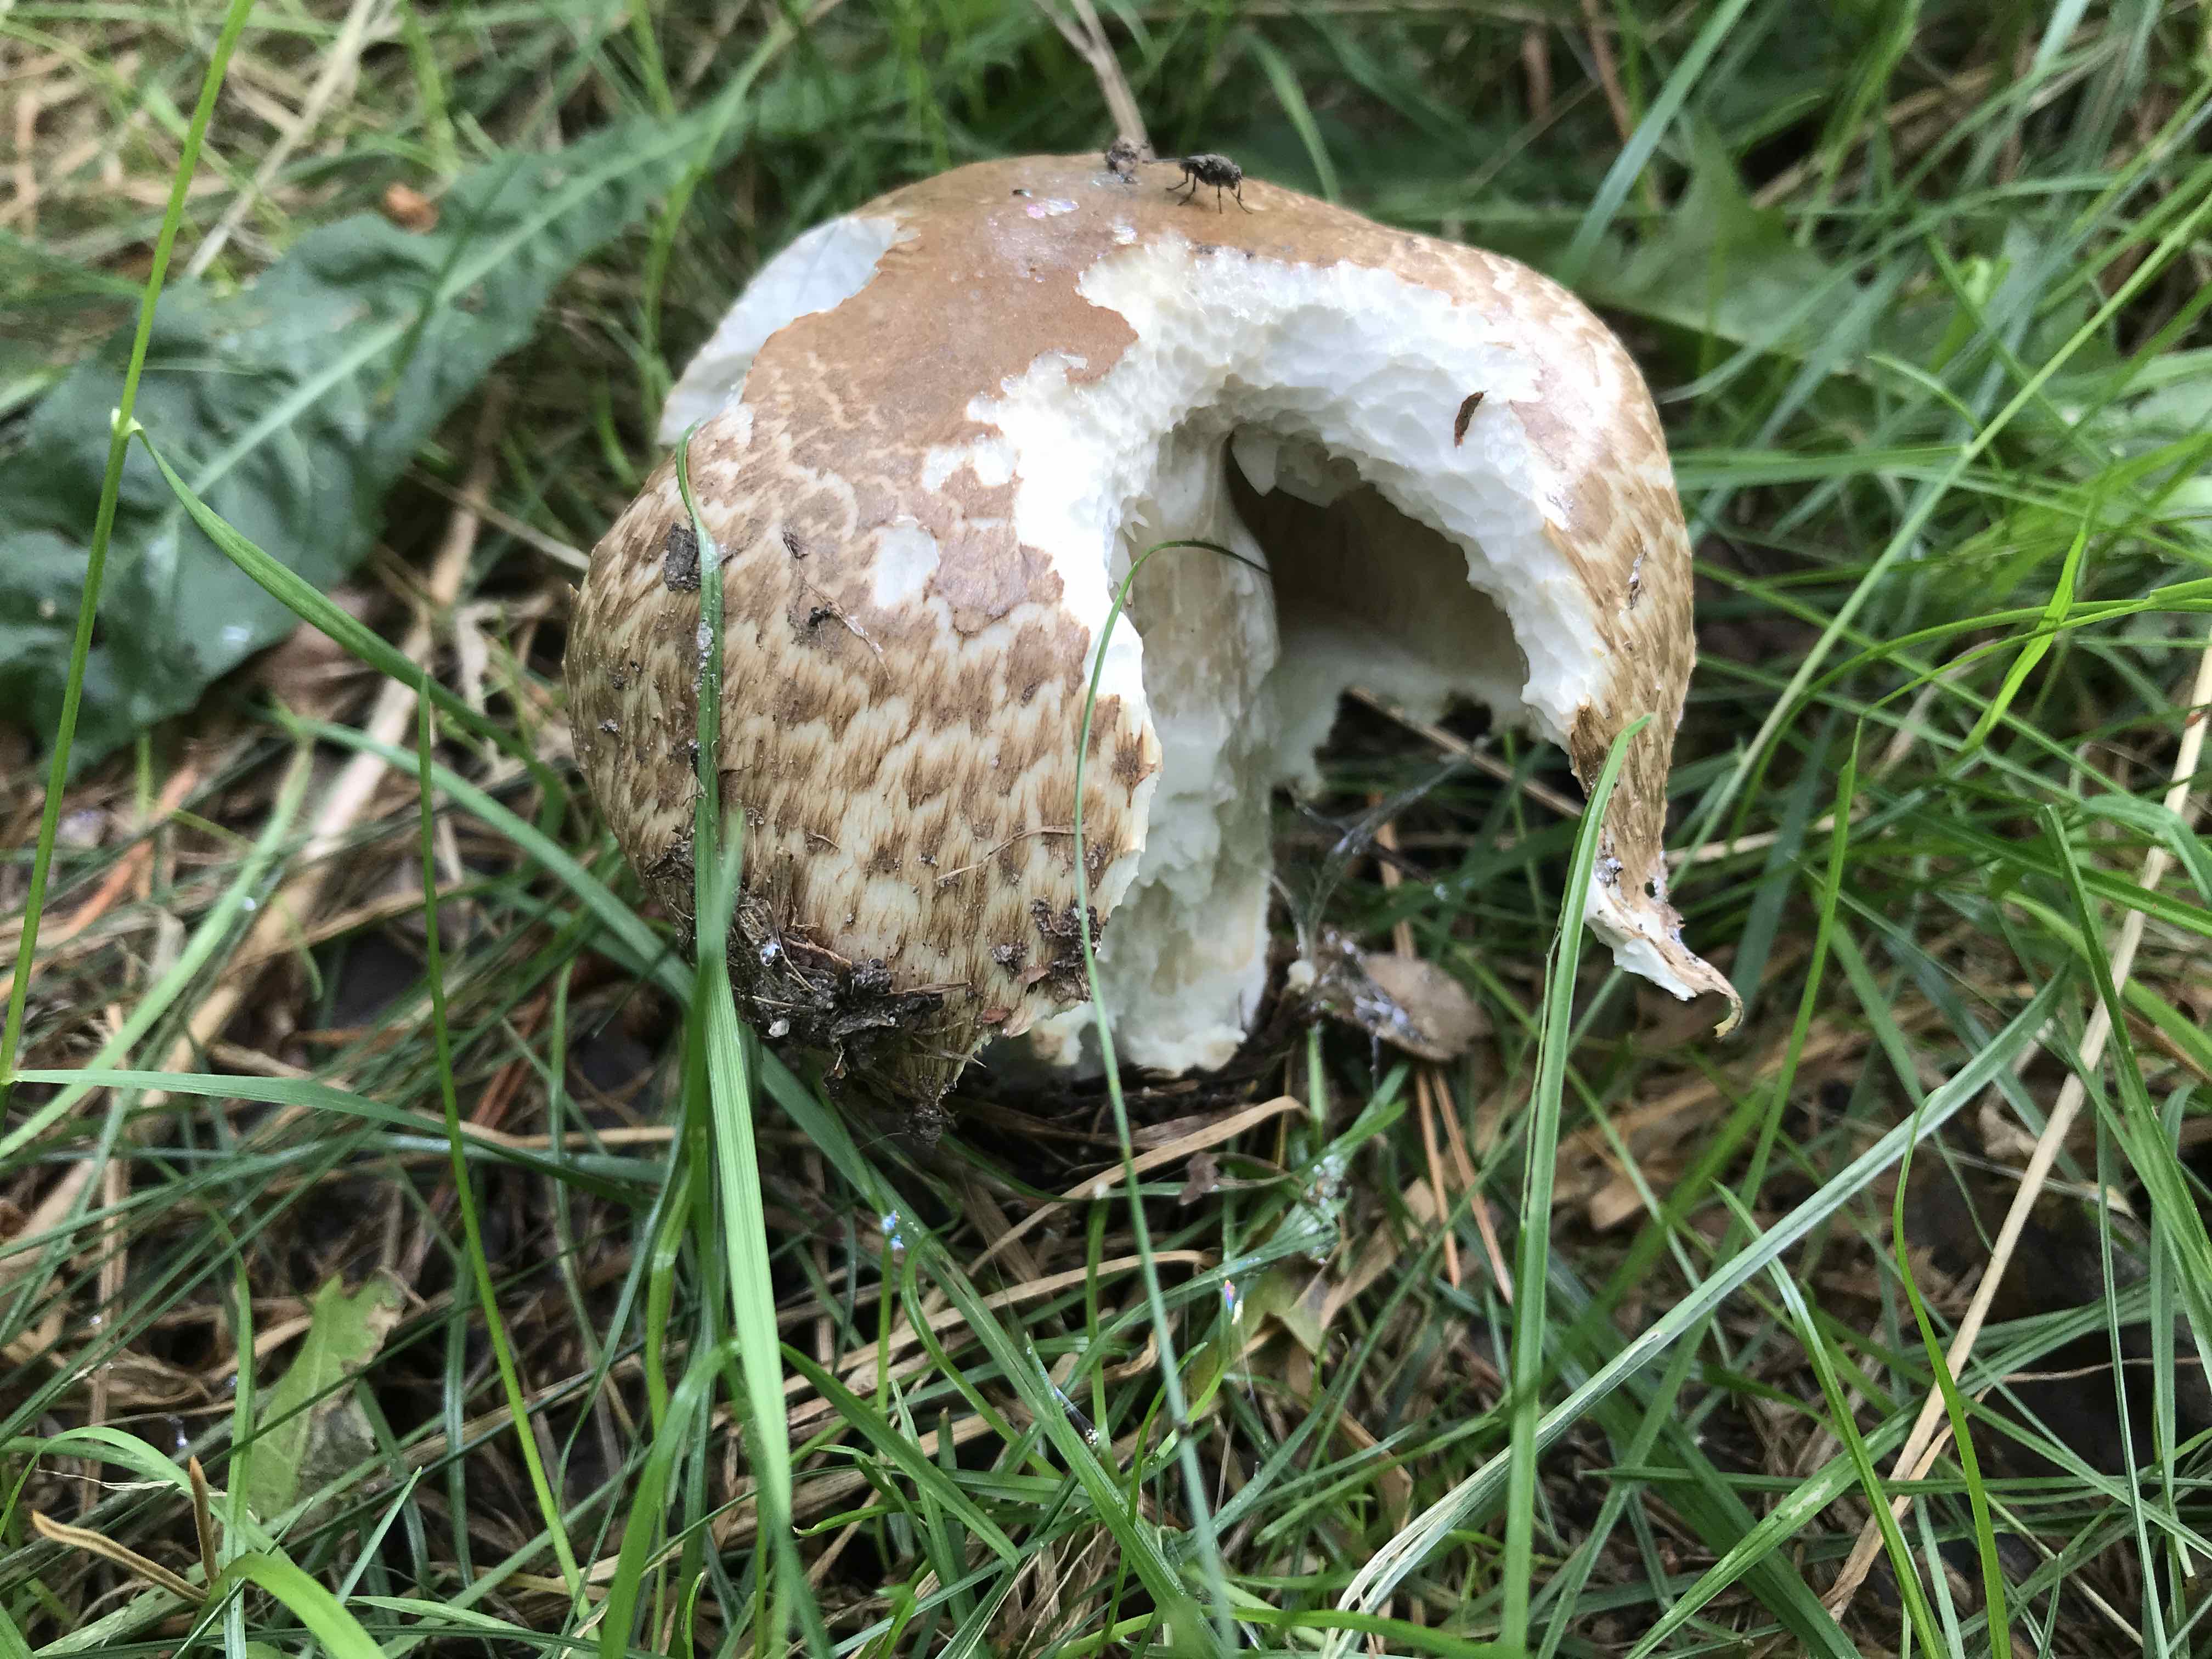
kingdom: Fungi
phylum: Basidiomycota
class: Agaricomycetes
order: Agaricales
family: Agaricaceae
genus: Agaricus
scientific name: Agaricus augustus
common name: prægtig champignon
